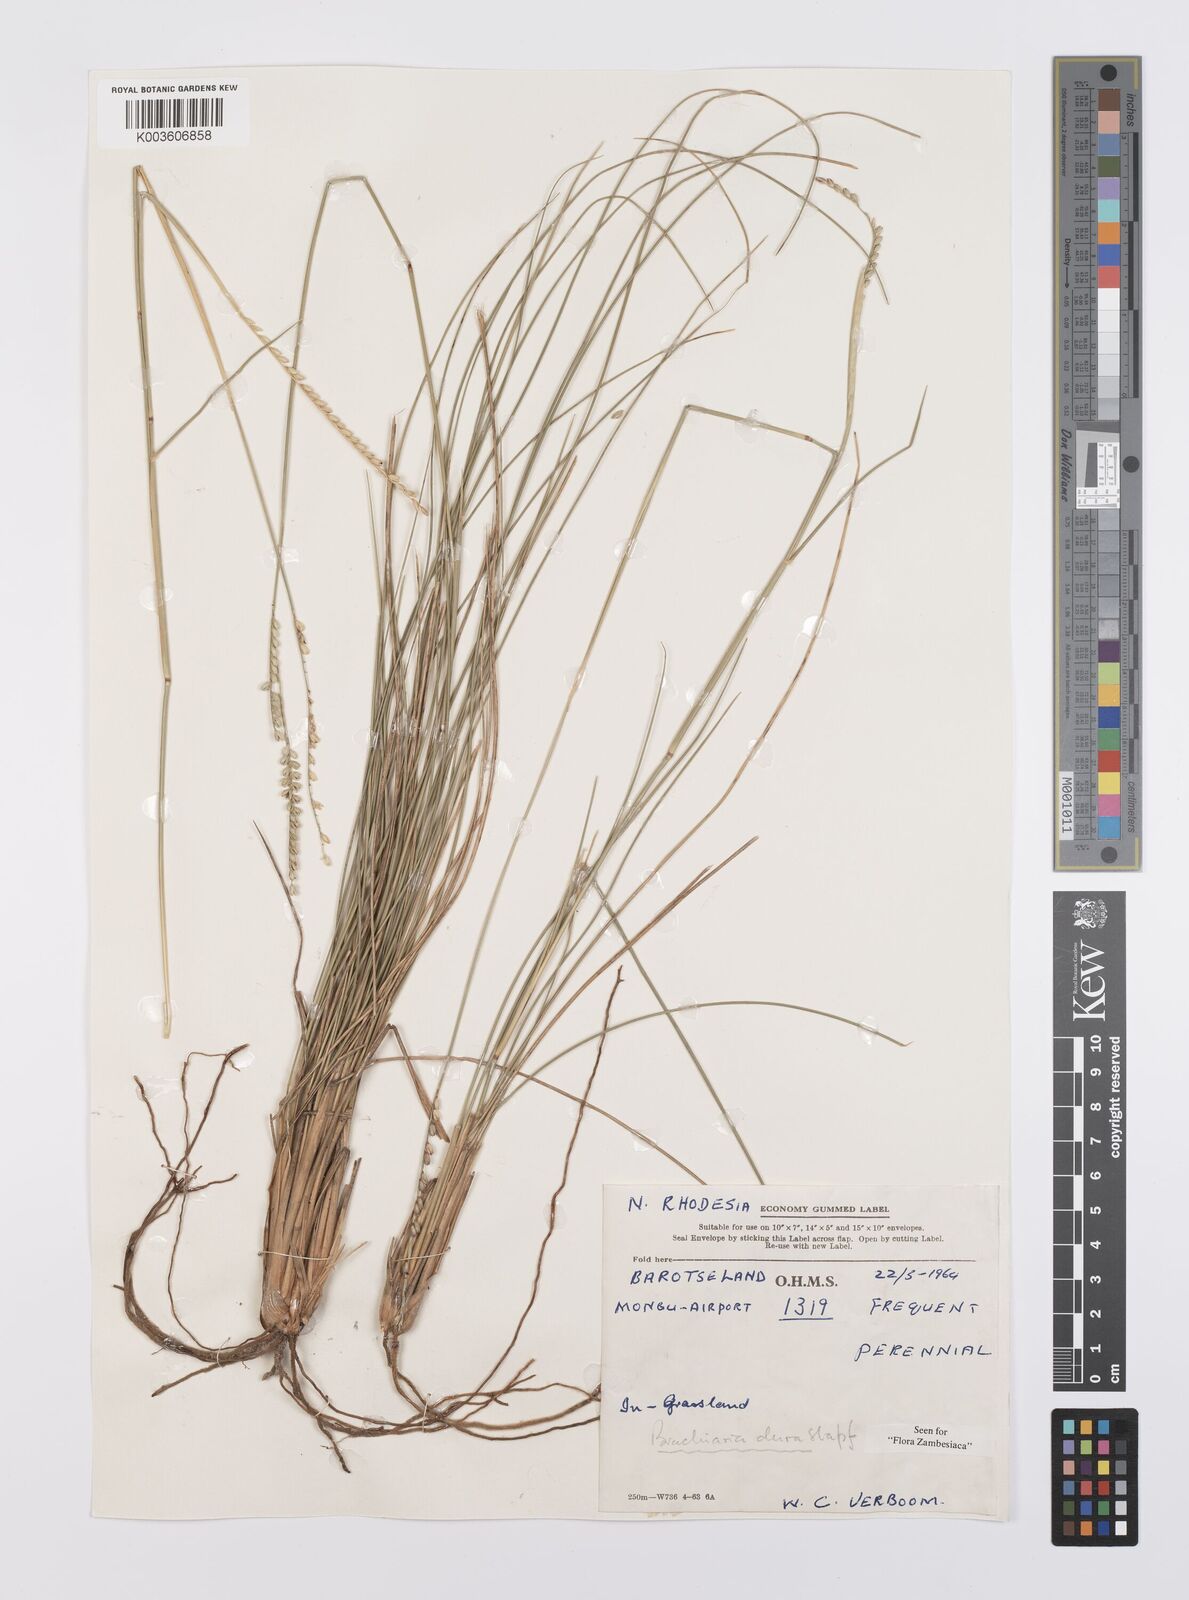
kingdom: Plantae
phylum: Tracheophyta
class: Liliopsida
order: Poales
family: Poaceae
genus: Urochloa
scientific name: Urochloa dura
